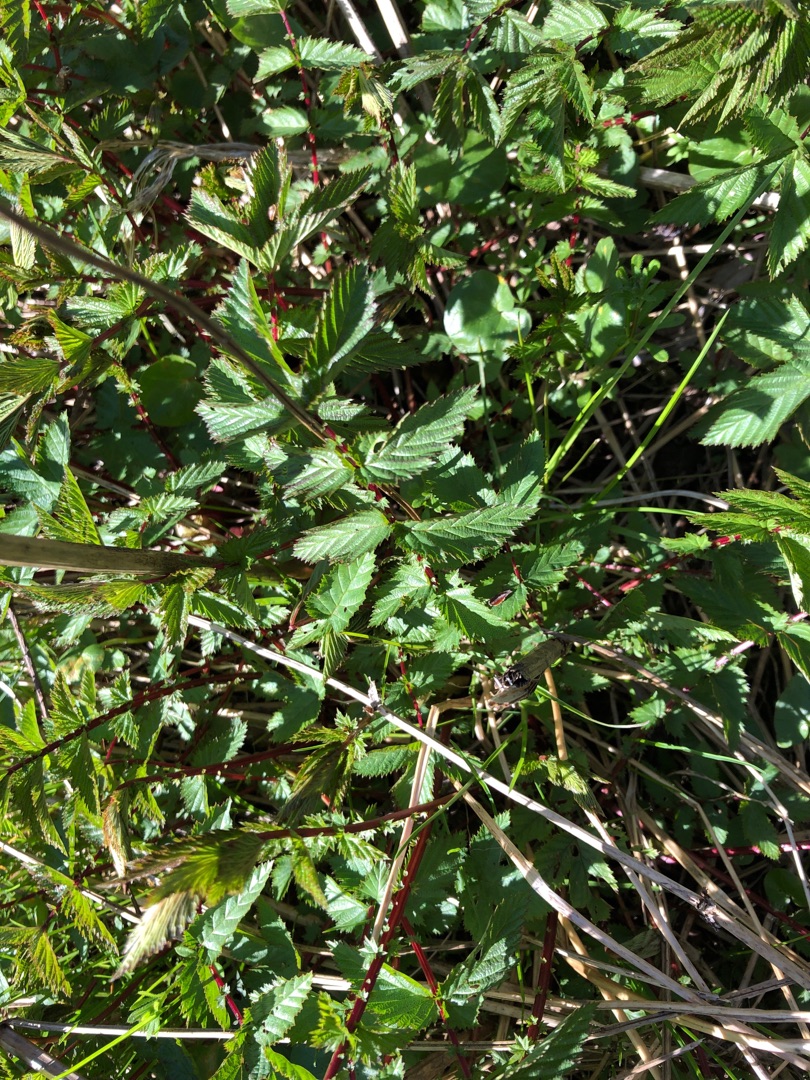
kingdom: Plantae
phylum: Tracheophyta
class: Magnoliopsida
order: Rosales
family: Rosaceae
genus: Filipendula
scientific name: Filipendula ulmaria
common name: Almindelig mjødurt
